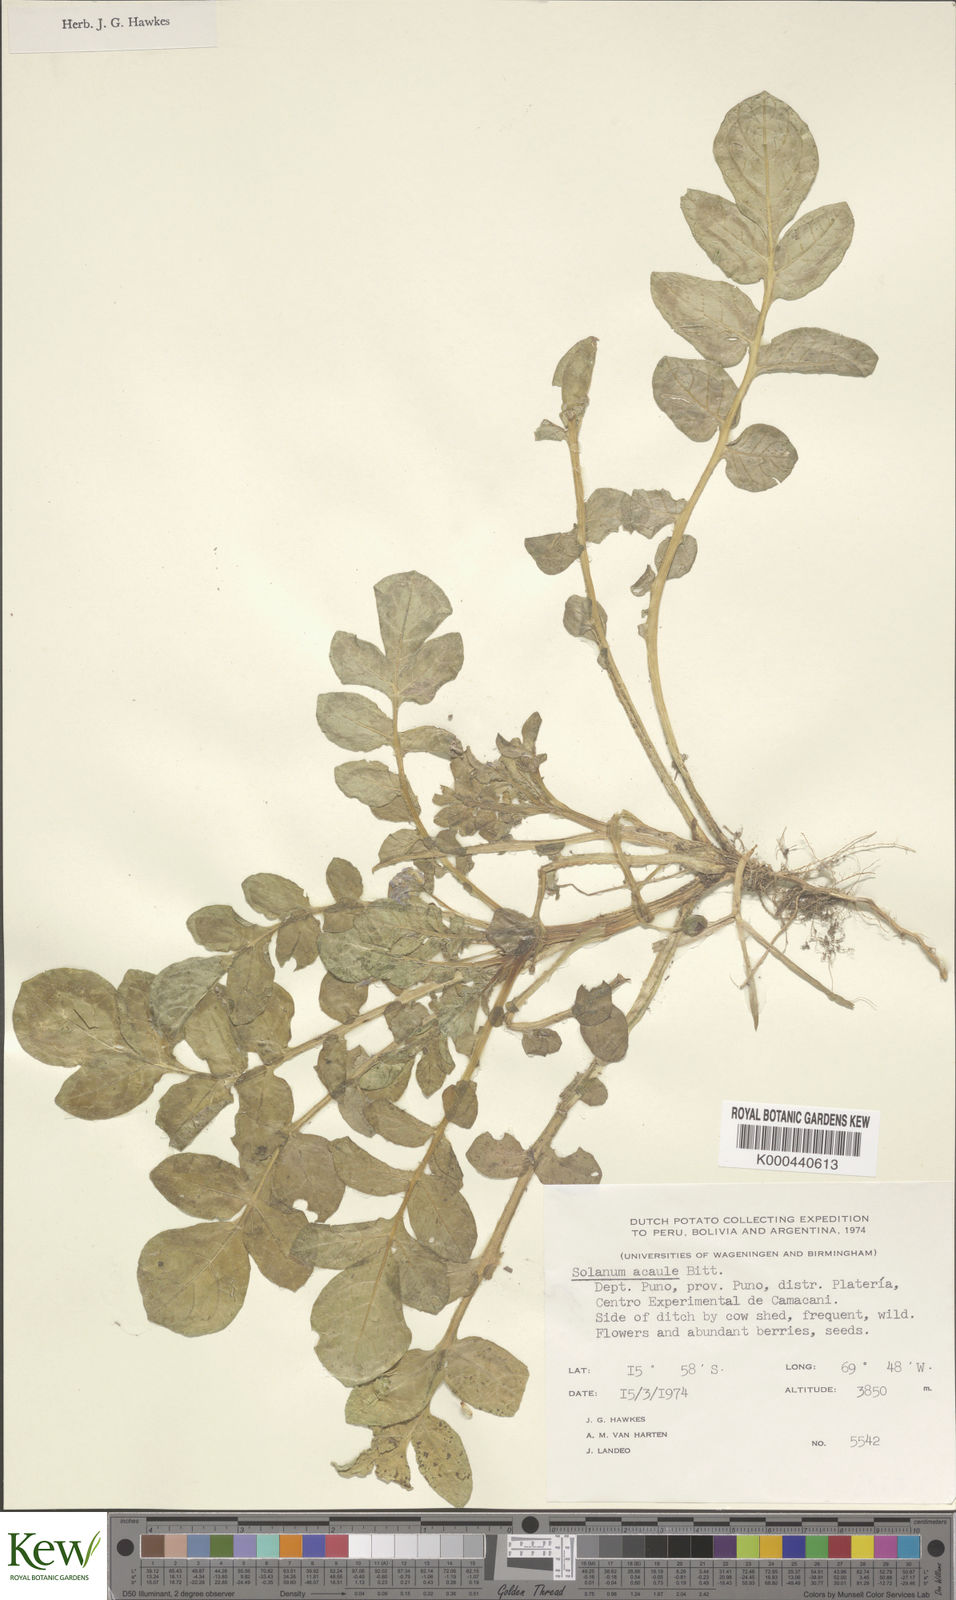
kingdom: Plantae
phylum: Tracheophyta
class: Magnoliopsida
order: Solanales
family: Solanaceae
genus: Solanum
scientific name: Solanum acaule
